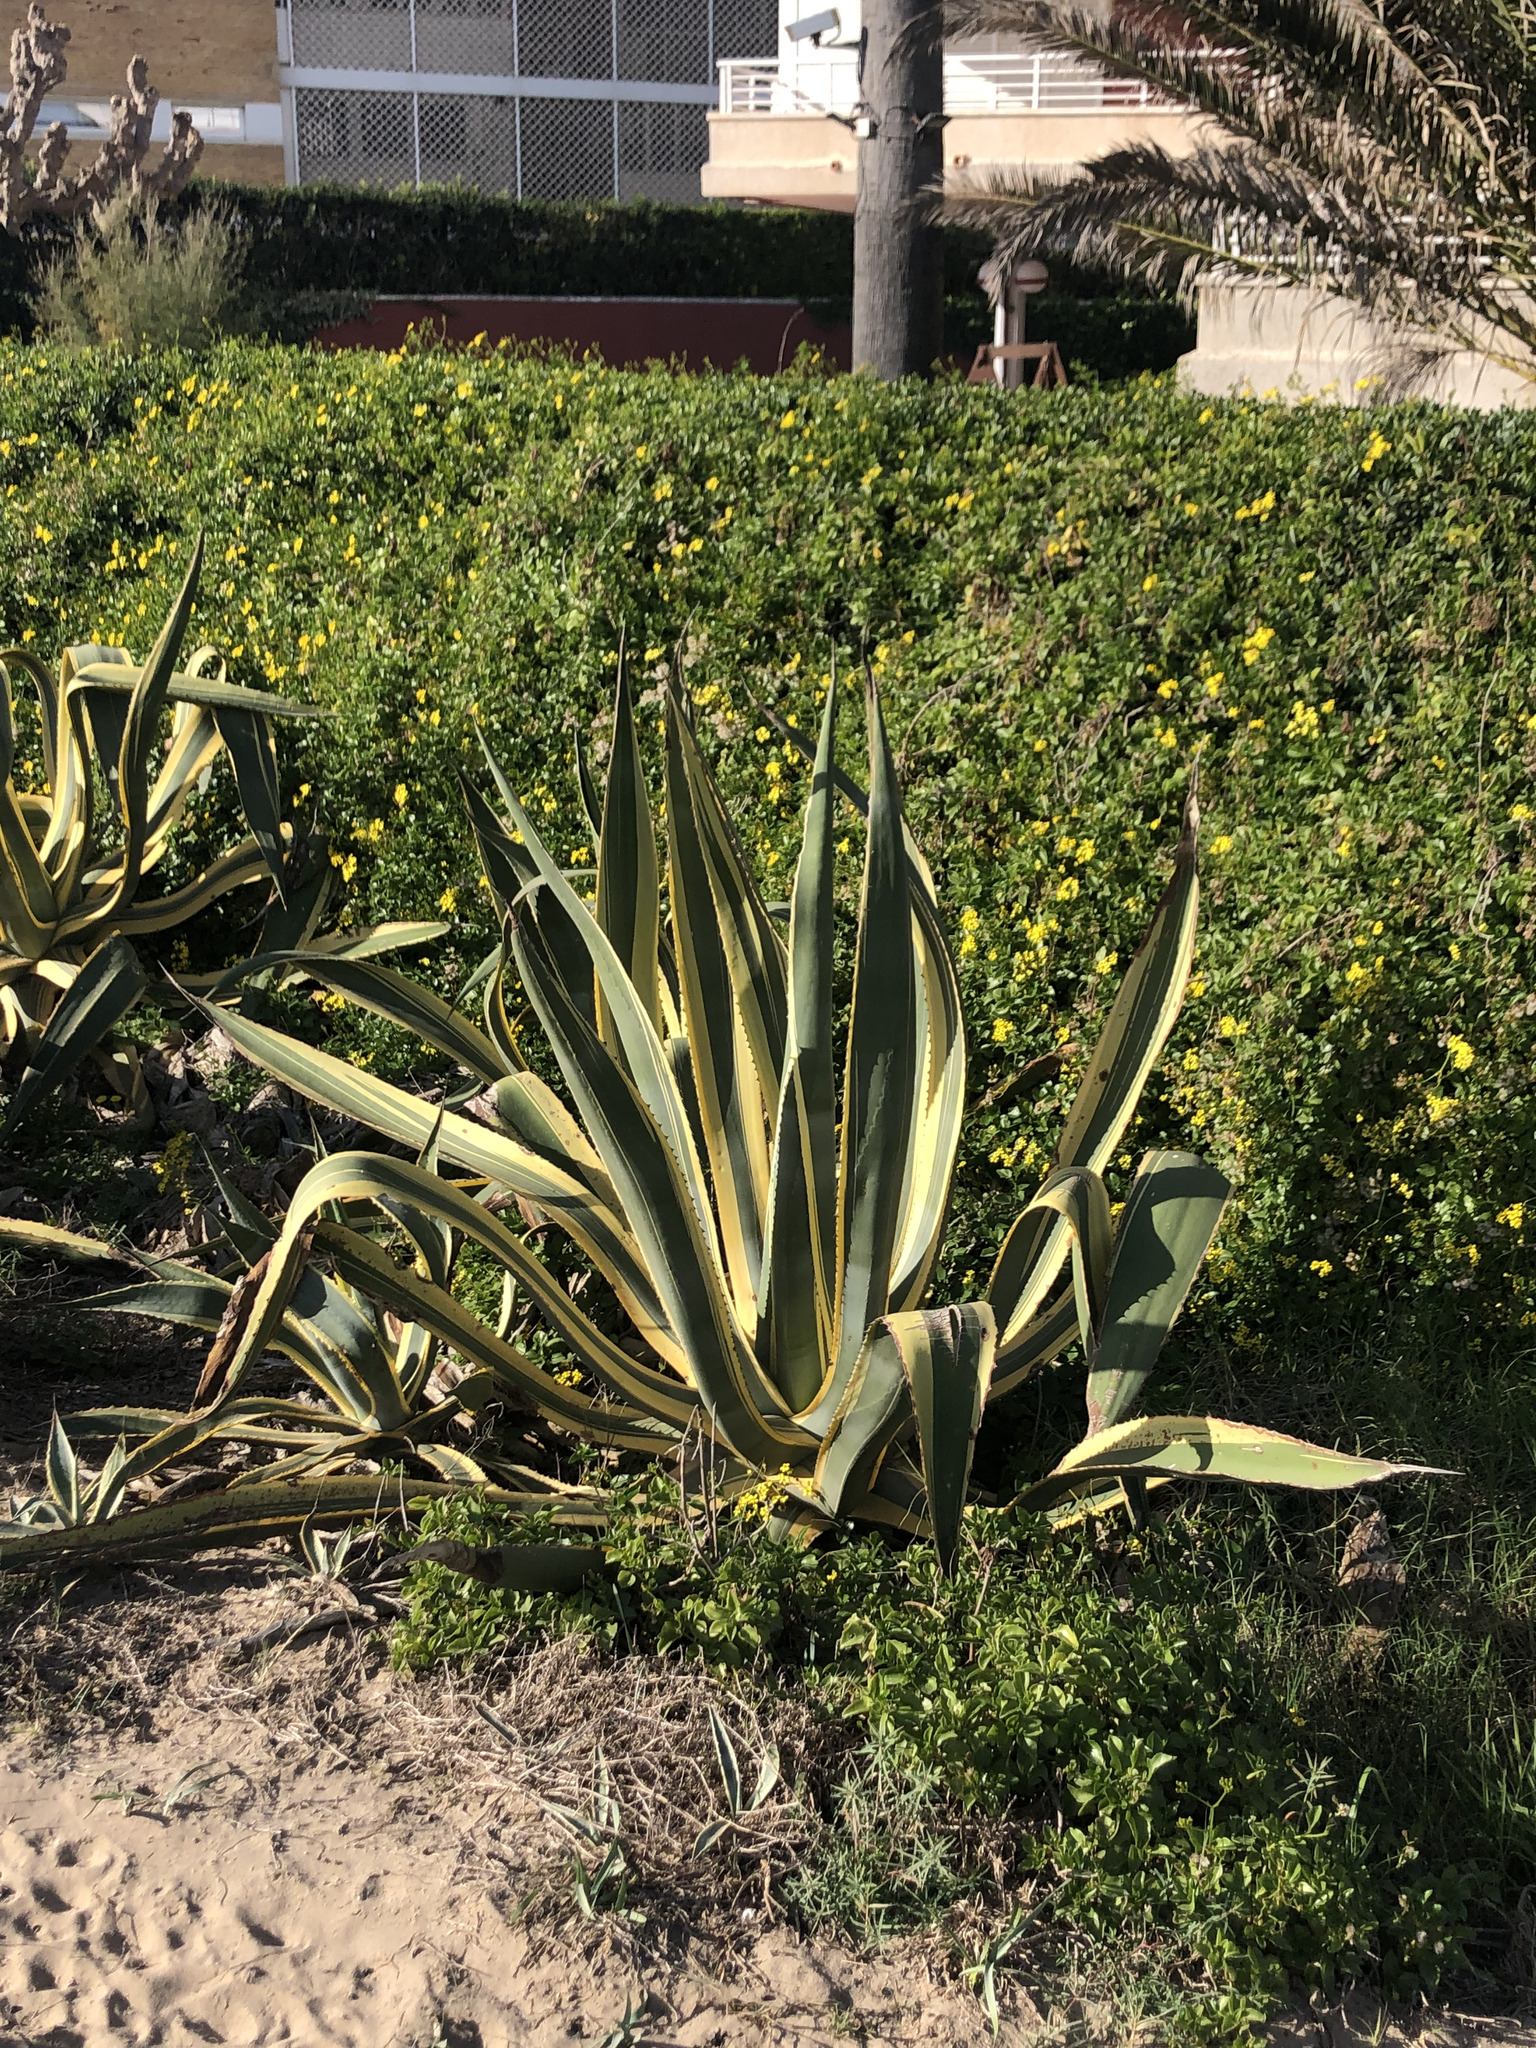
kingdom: Plantae
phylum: Tracheophyta
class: Liliopsida
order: Asparagales
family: Asparagaceae
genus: Agave
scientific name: Agave americana
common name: Centuryplant
